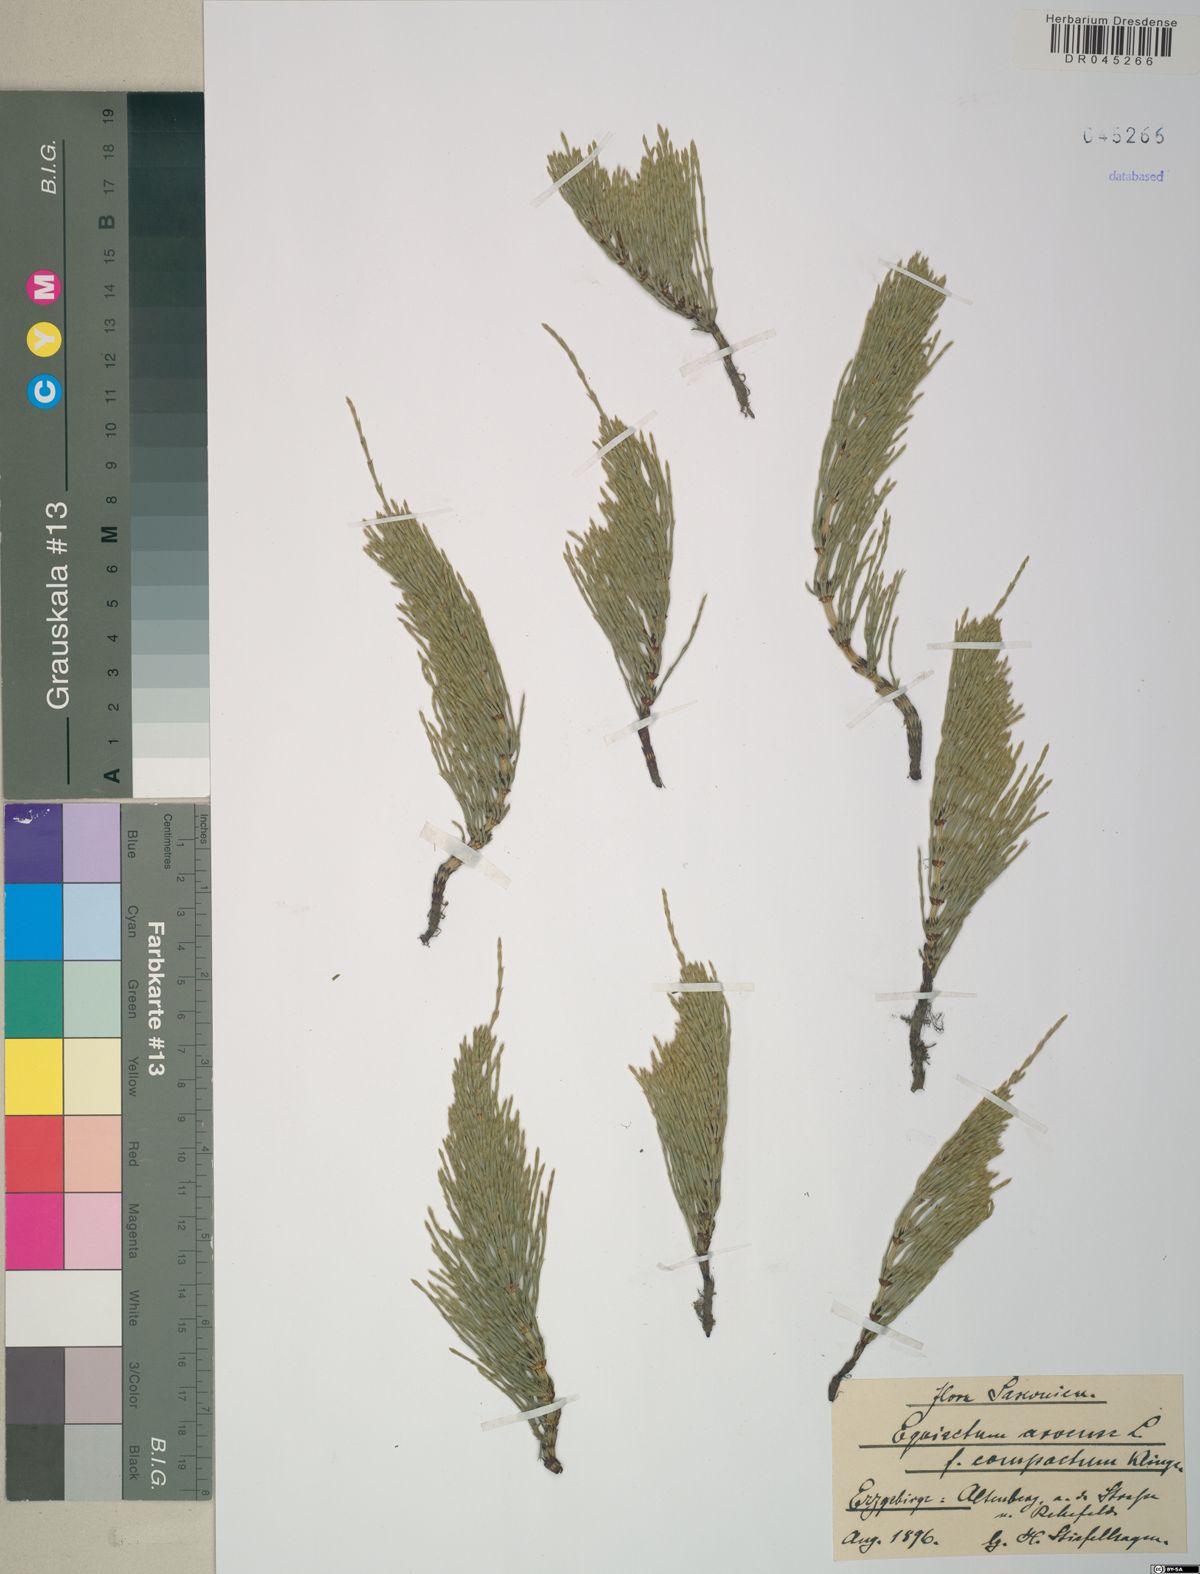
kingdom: Plantae
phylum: Tracheophyta
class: Polypodiopsida
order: Equisetales
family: Equisetaceae
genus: Equisetum
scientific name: Equisetum arvense
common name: Field horsetail
